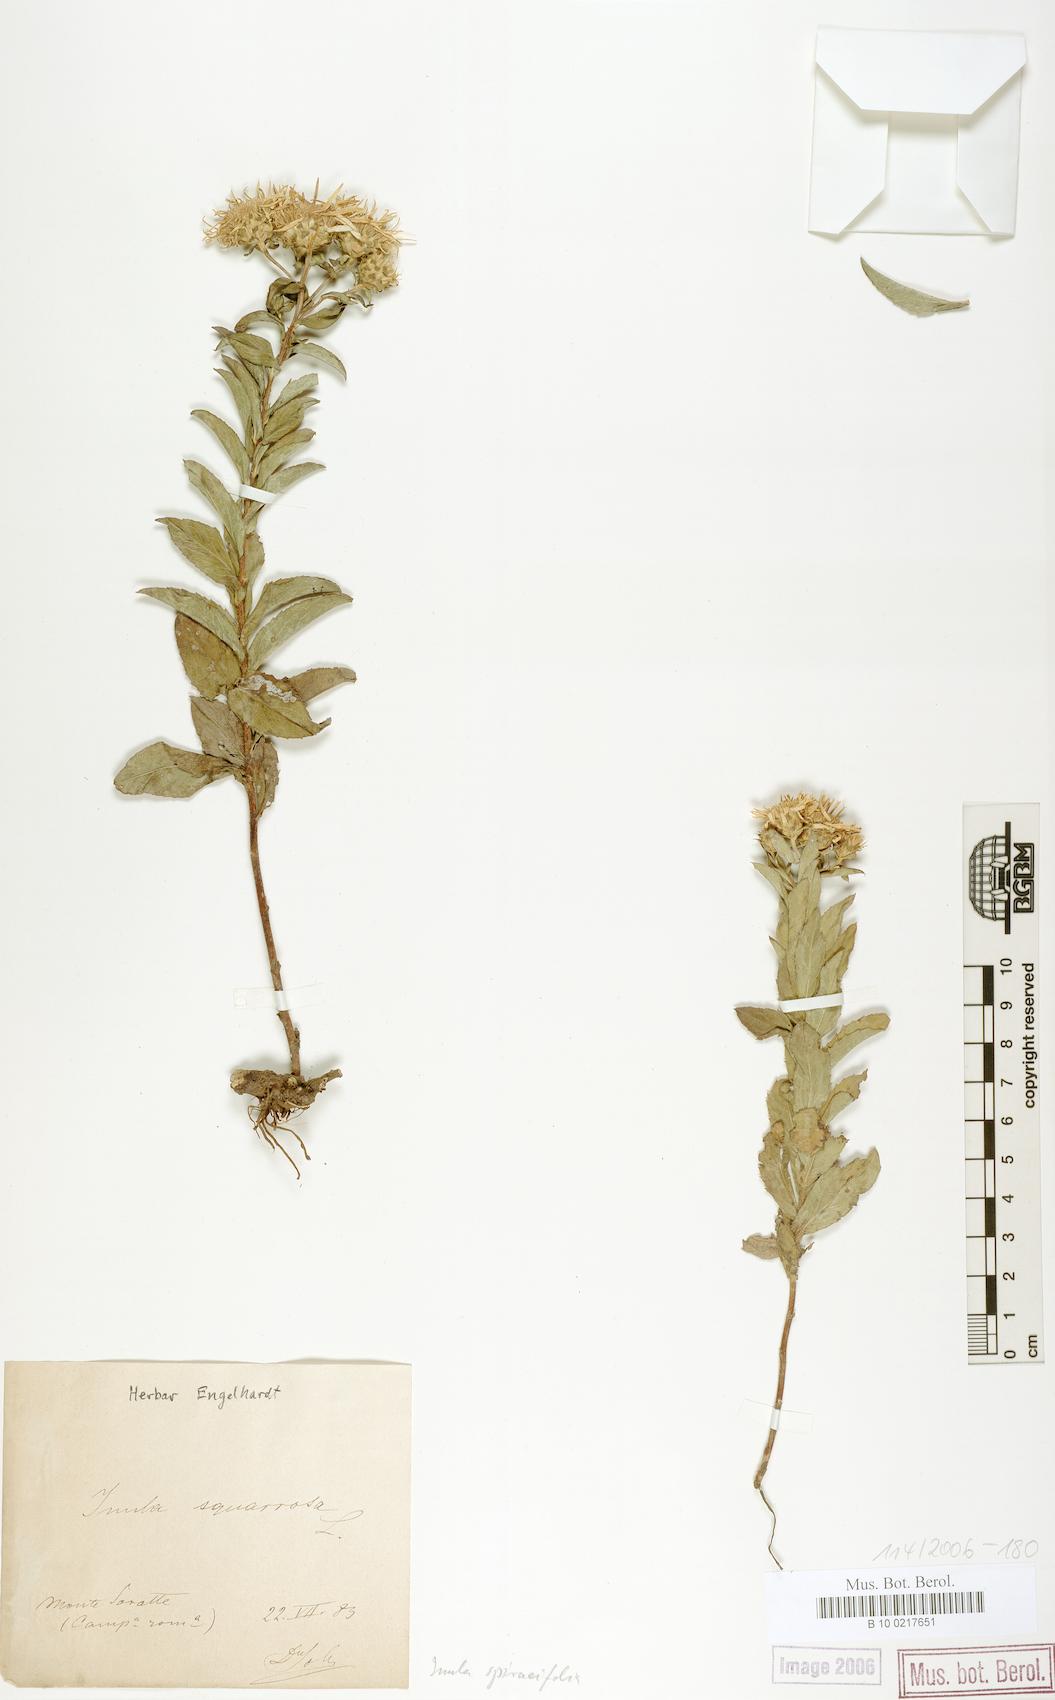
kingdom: Plantae
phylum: Tracheophyta
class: Magnoliopsida
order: Asterales
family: Asteraceae
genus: Pentanema
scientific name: Pentanema spiraeifolium
